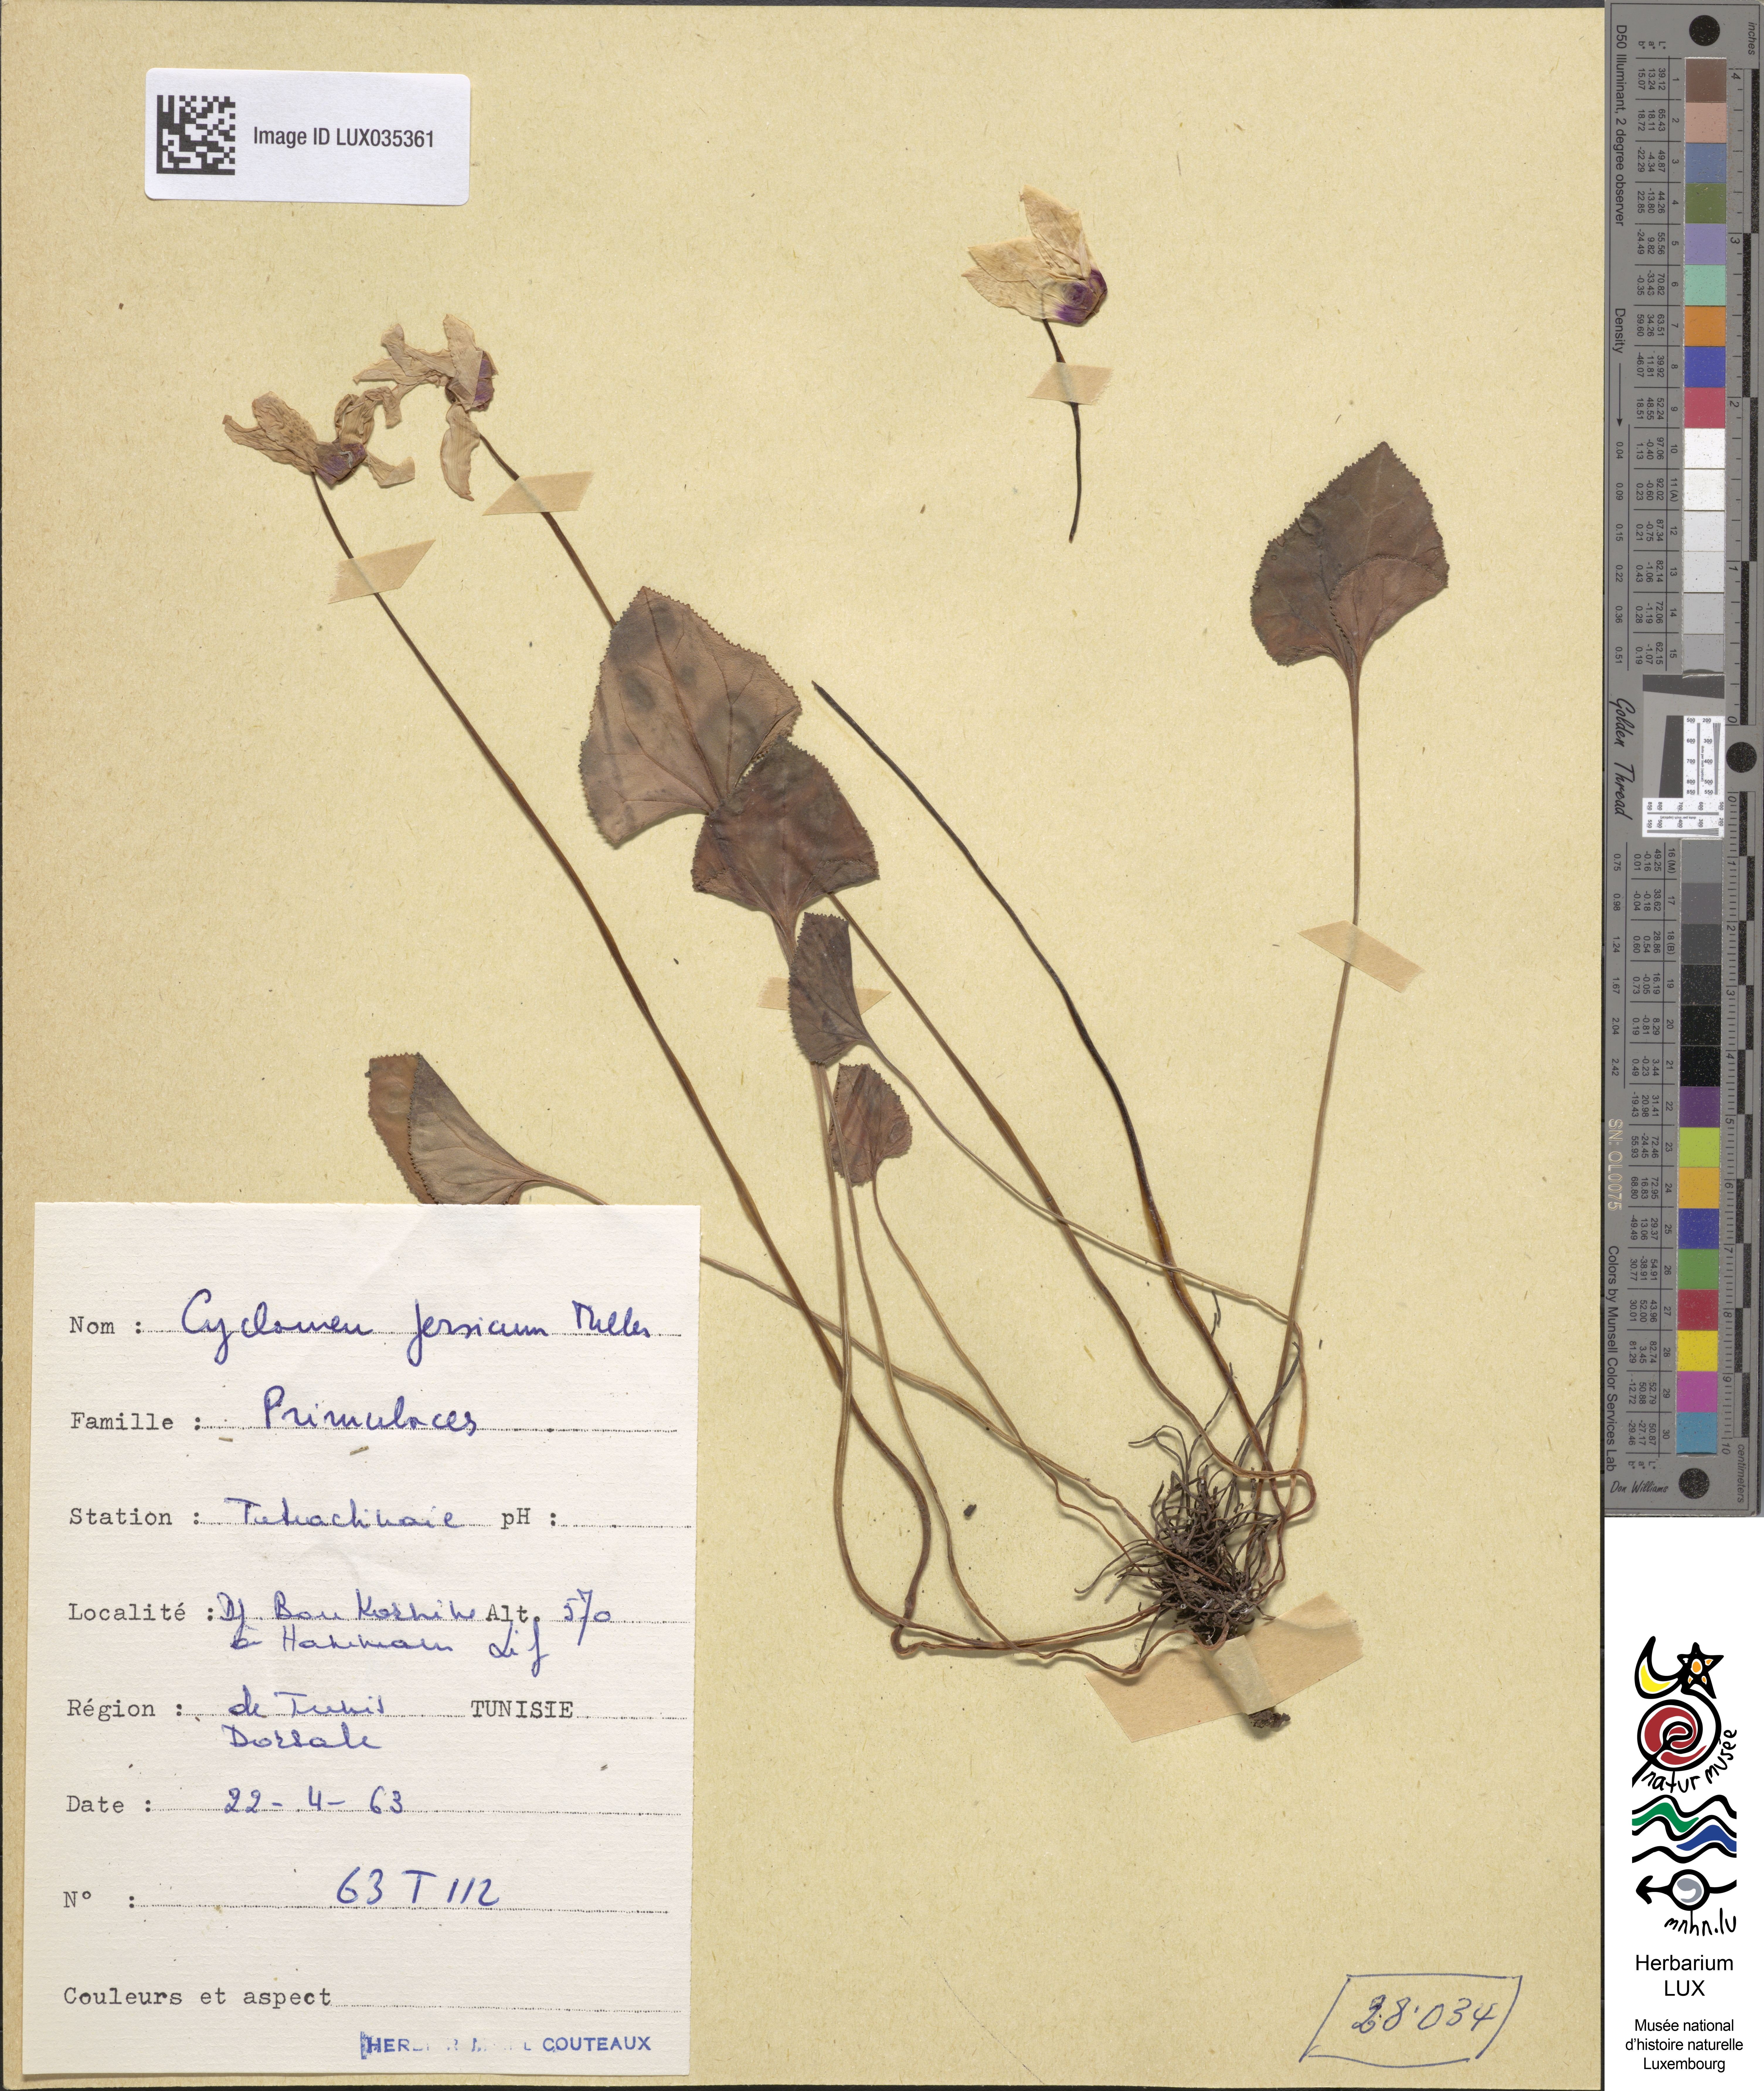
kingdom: Plantae
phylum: Tracheophyta
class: Magnoliopsida
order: Ericales
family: Primulaceae
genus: Cyclamen
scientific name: Cyclamen persicum
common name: Florist's cyclamen
